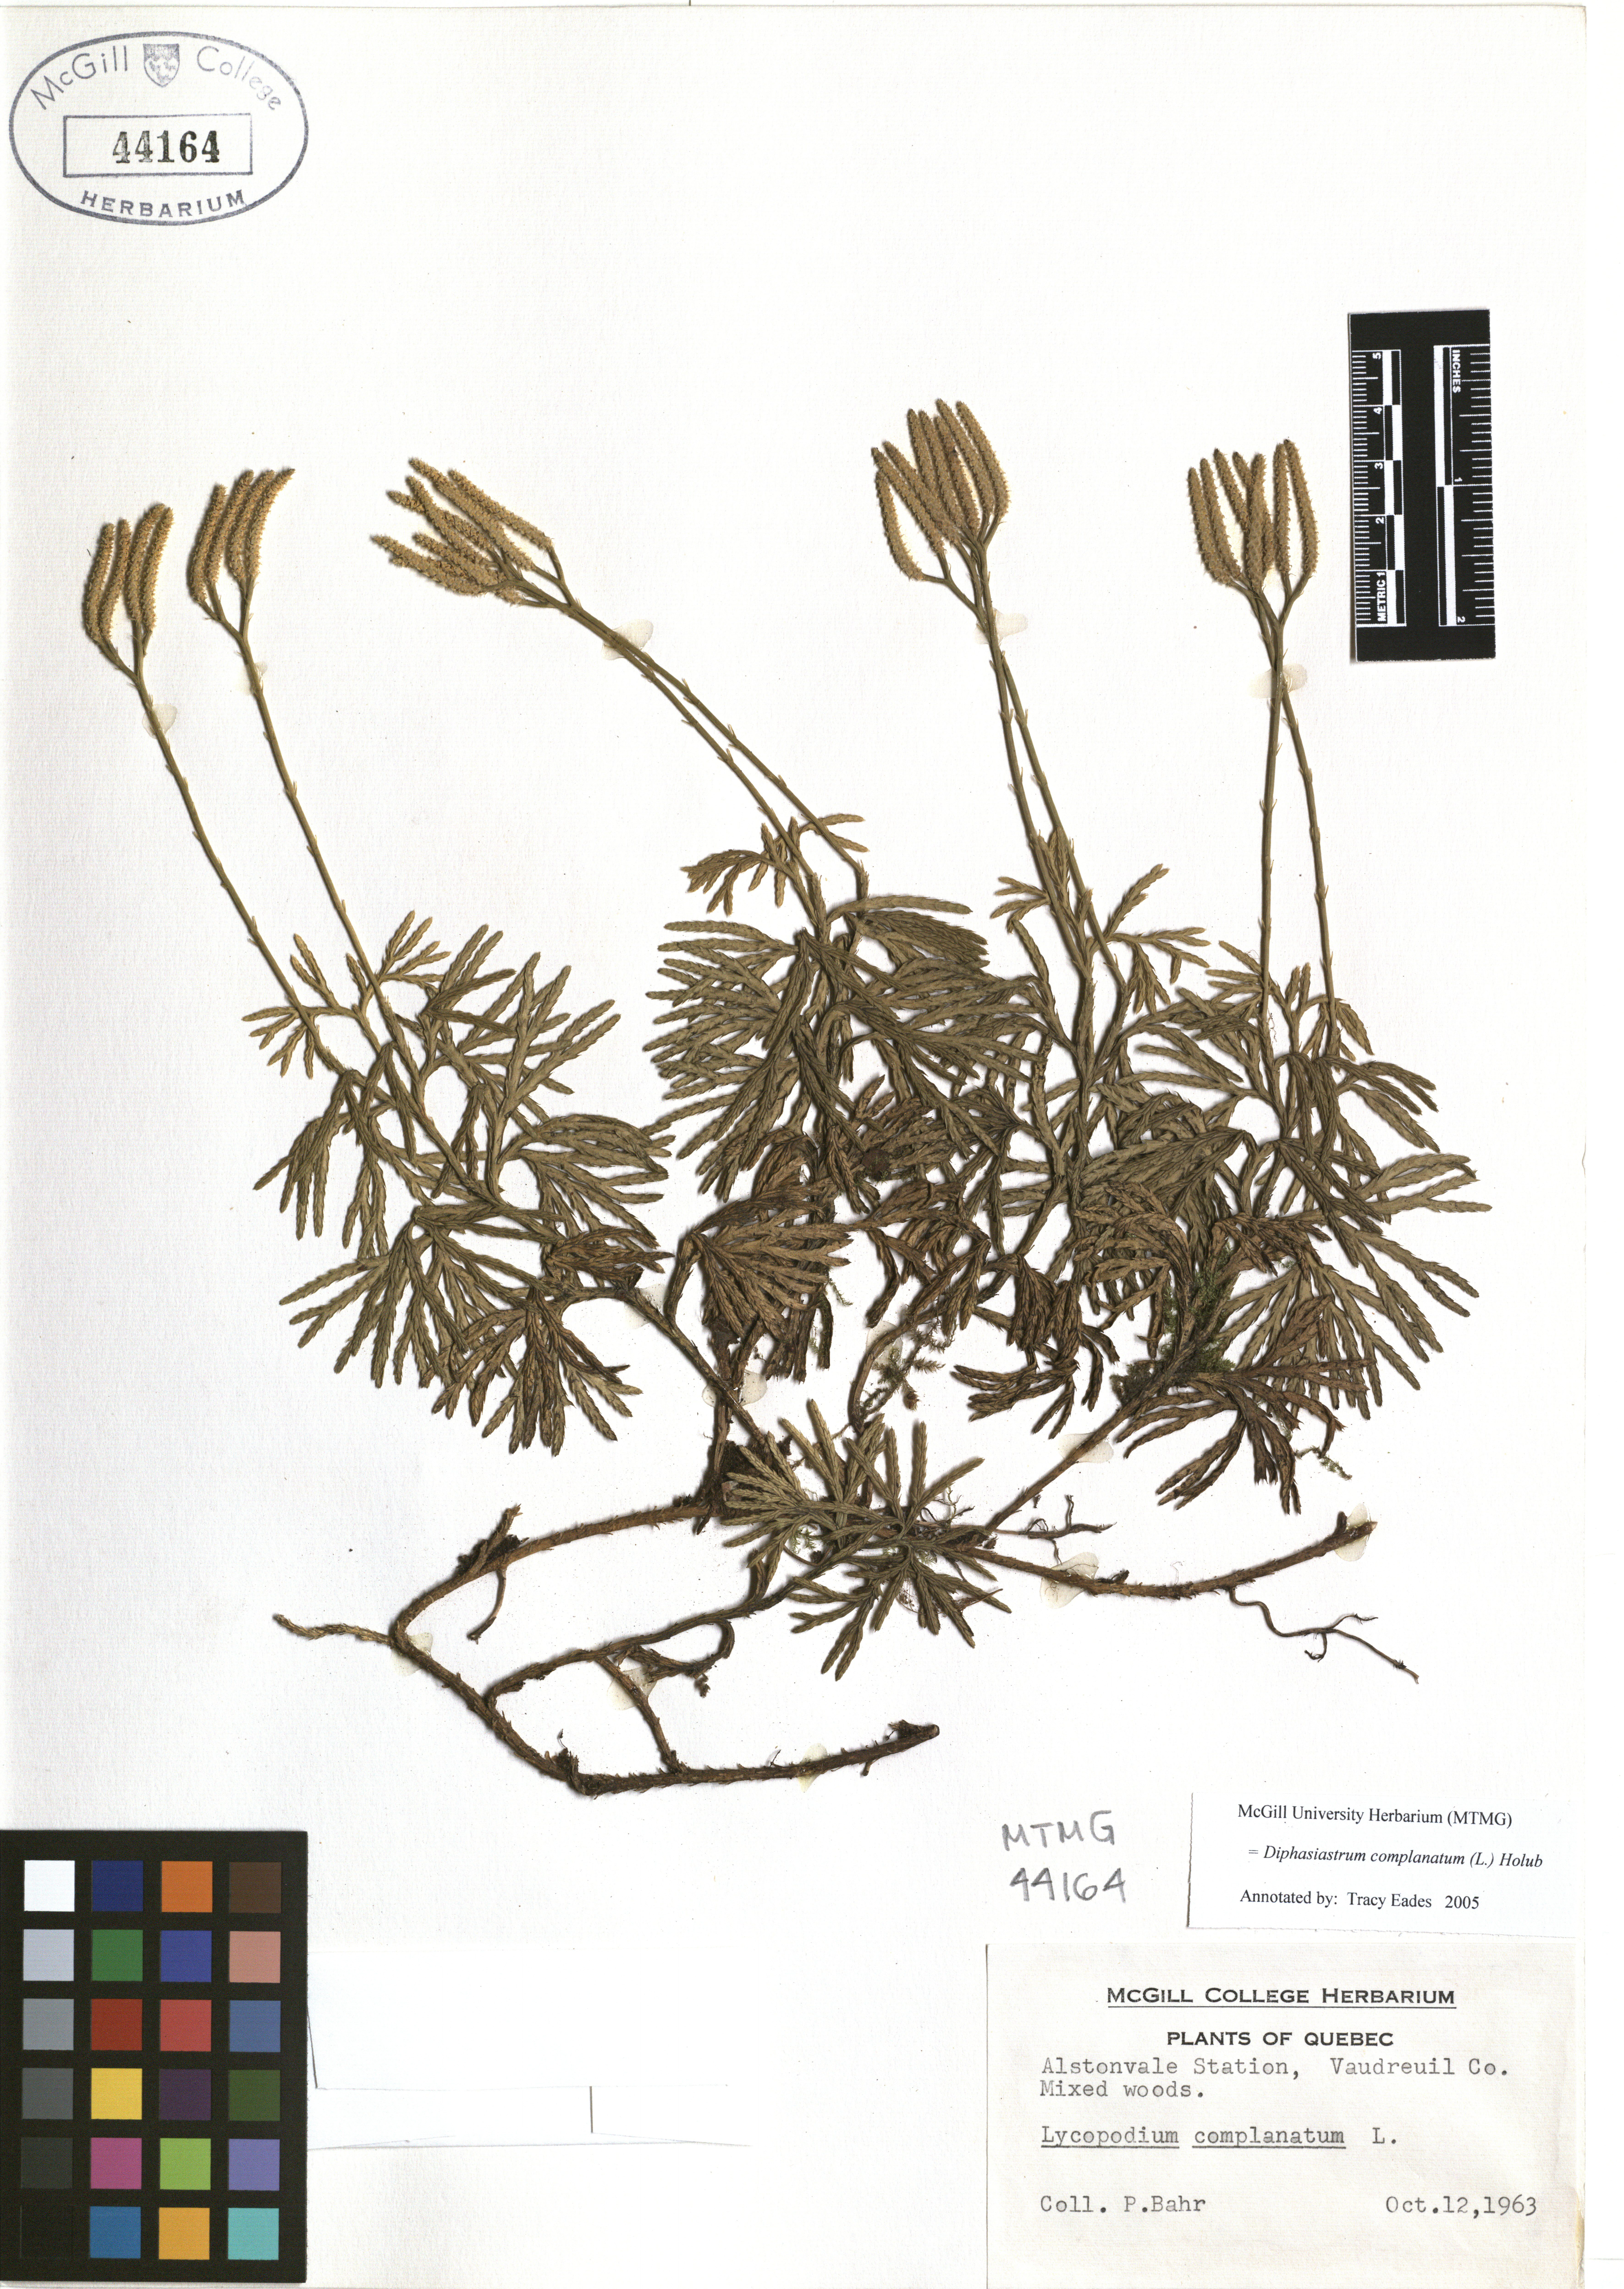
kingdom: Plantae
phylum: Tracheophyta
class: Lycopodiopsida
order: Lycopodiales
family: Lycopodiaceae
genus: Diphasiastrum
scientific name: Diphasiastrum complanatum
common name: Northern running-pine
